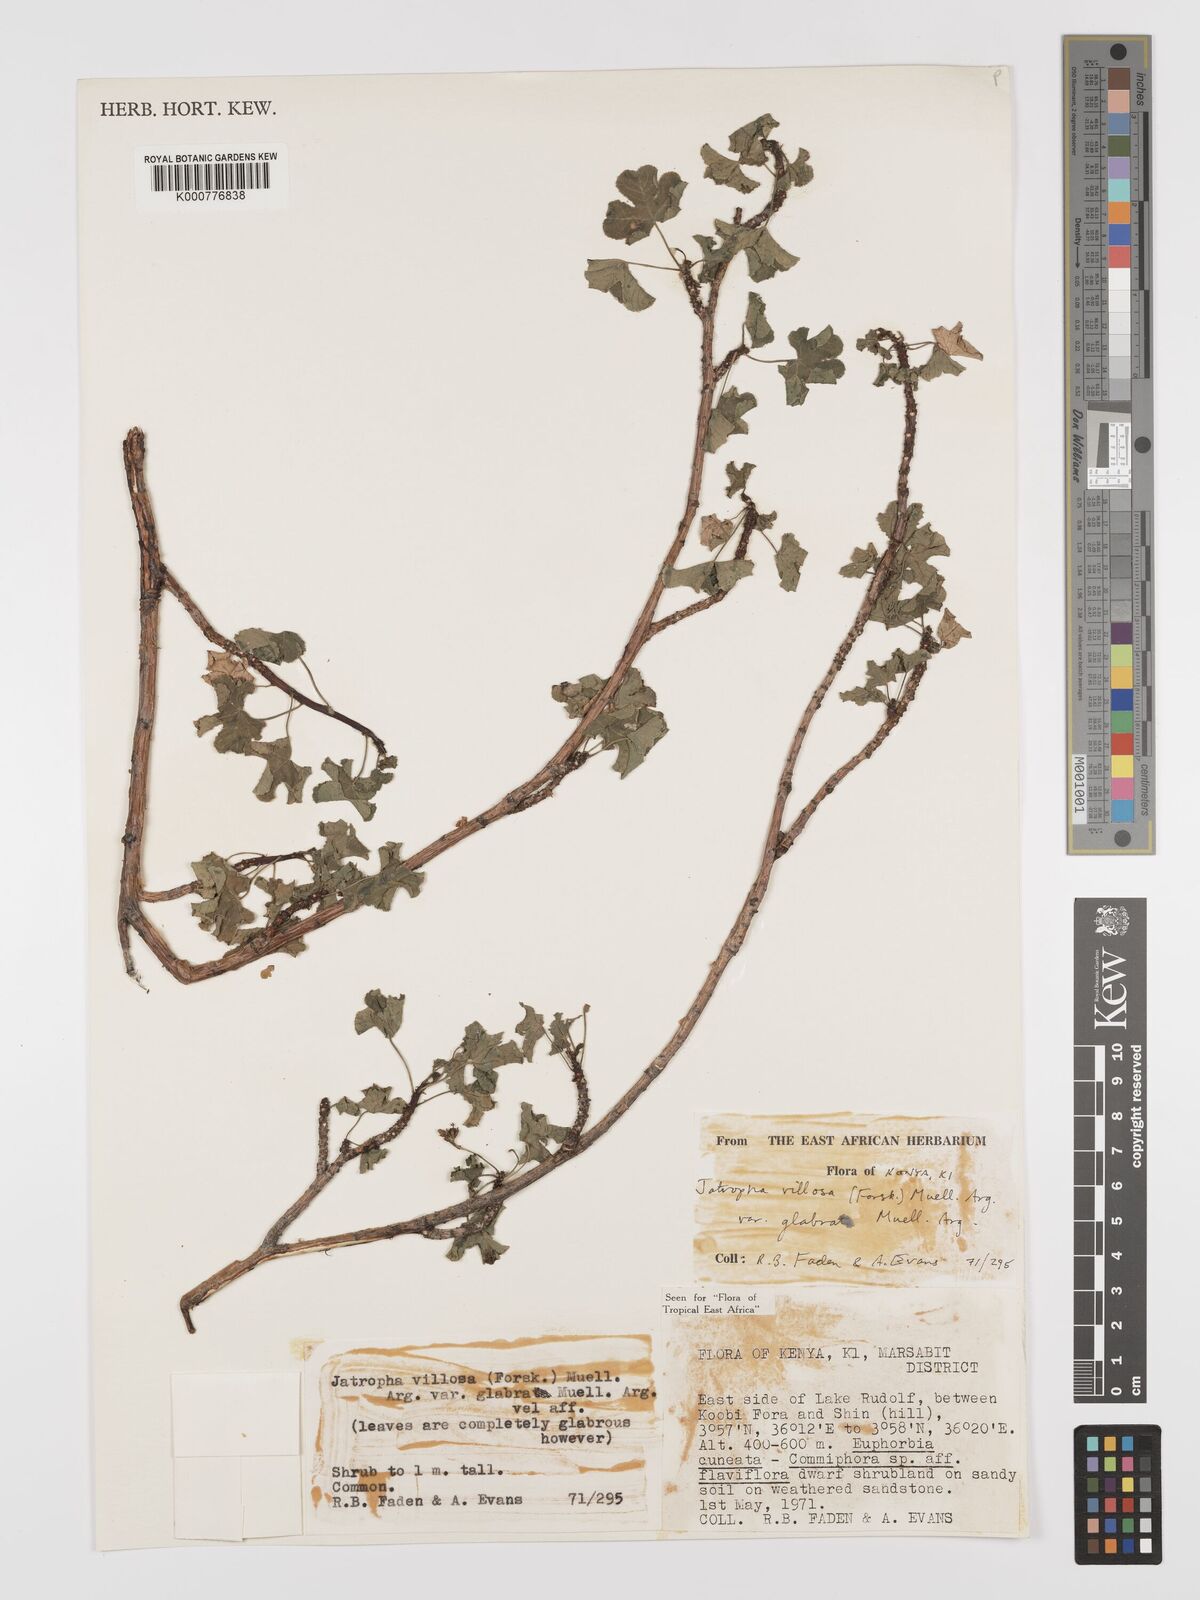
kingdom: Plantae
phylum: Tracheophyta
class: Magnoliopsida
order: Malpighiales
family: Euphorbiaceae
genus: Jatropha
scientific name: Jatropha pelargoniifolia
